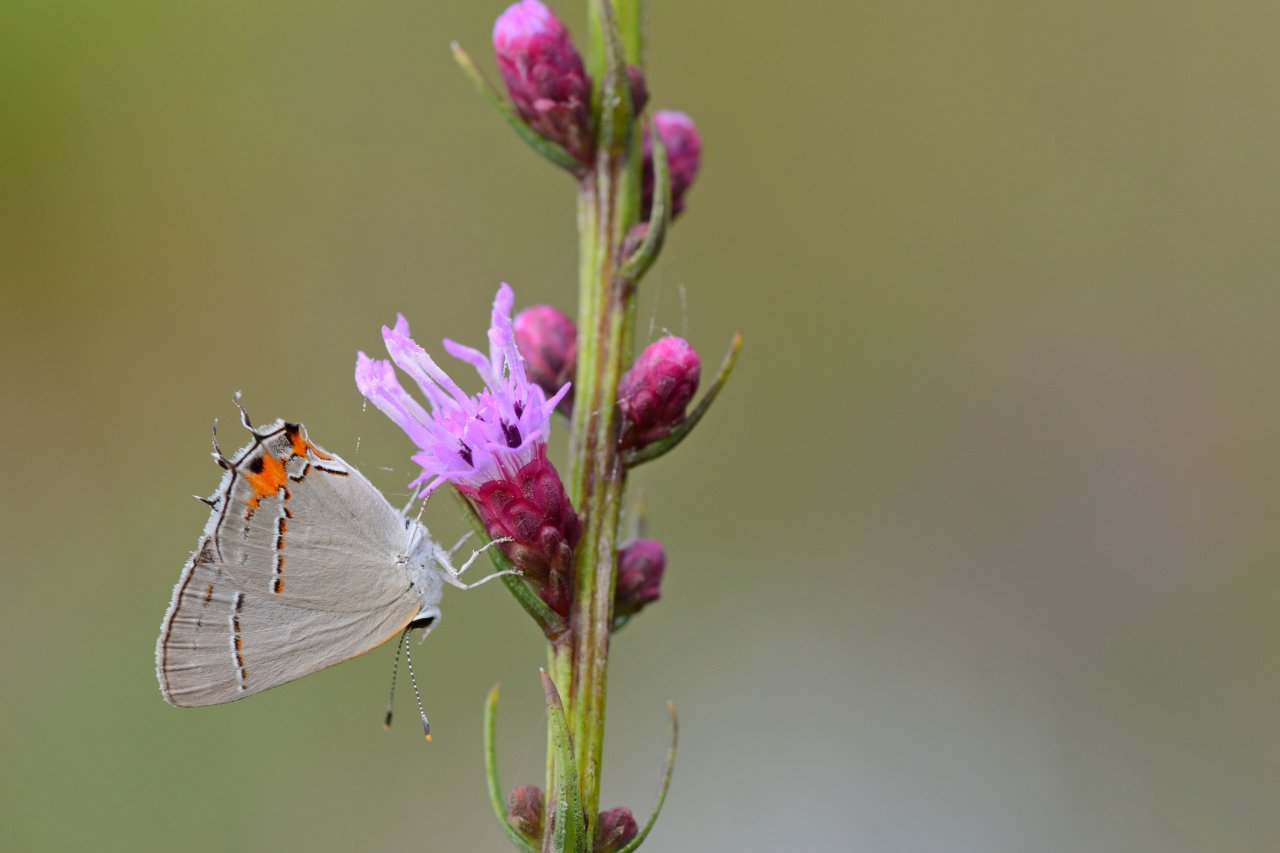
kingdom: Animalia
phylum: Arthropoda
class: Insecta
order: Lepidoptera
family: Lycaenidae
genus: Strymon
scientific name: Strymon melinus
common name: Gray Hairstreak
